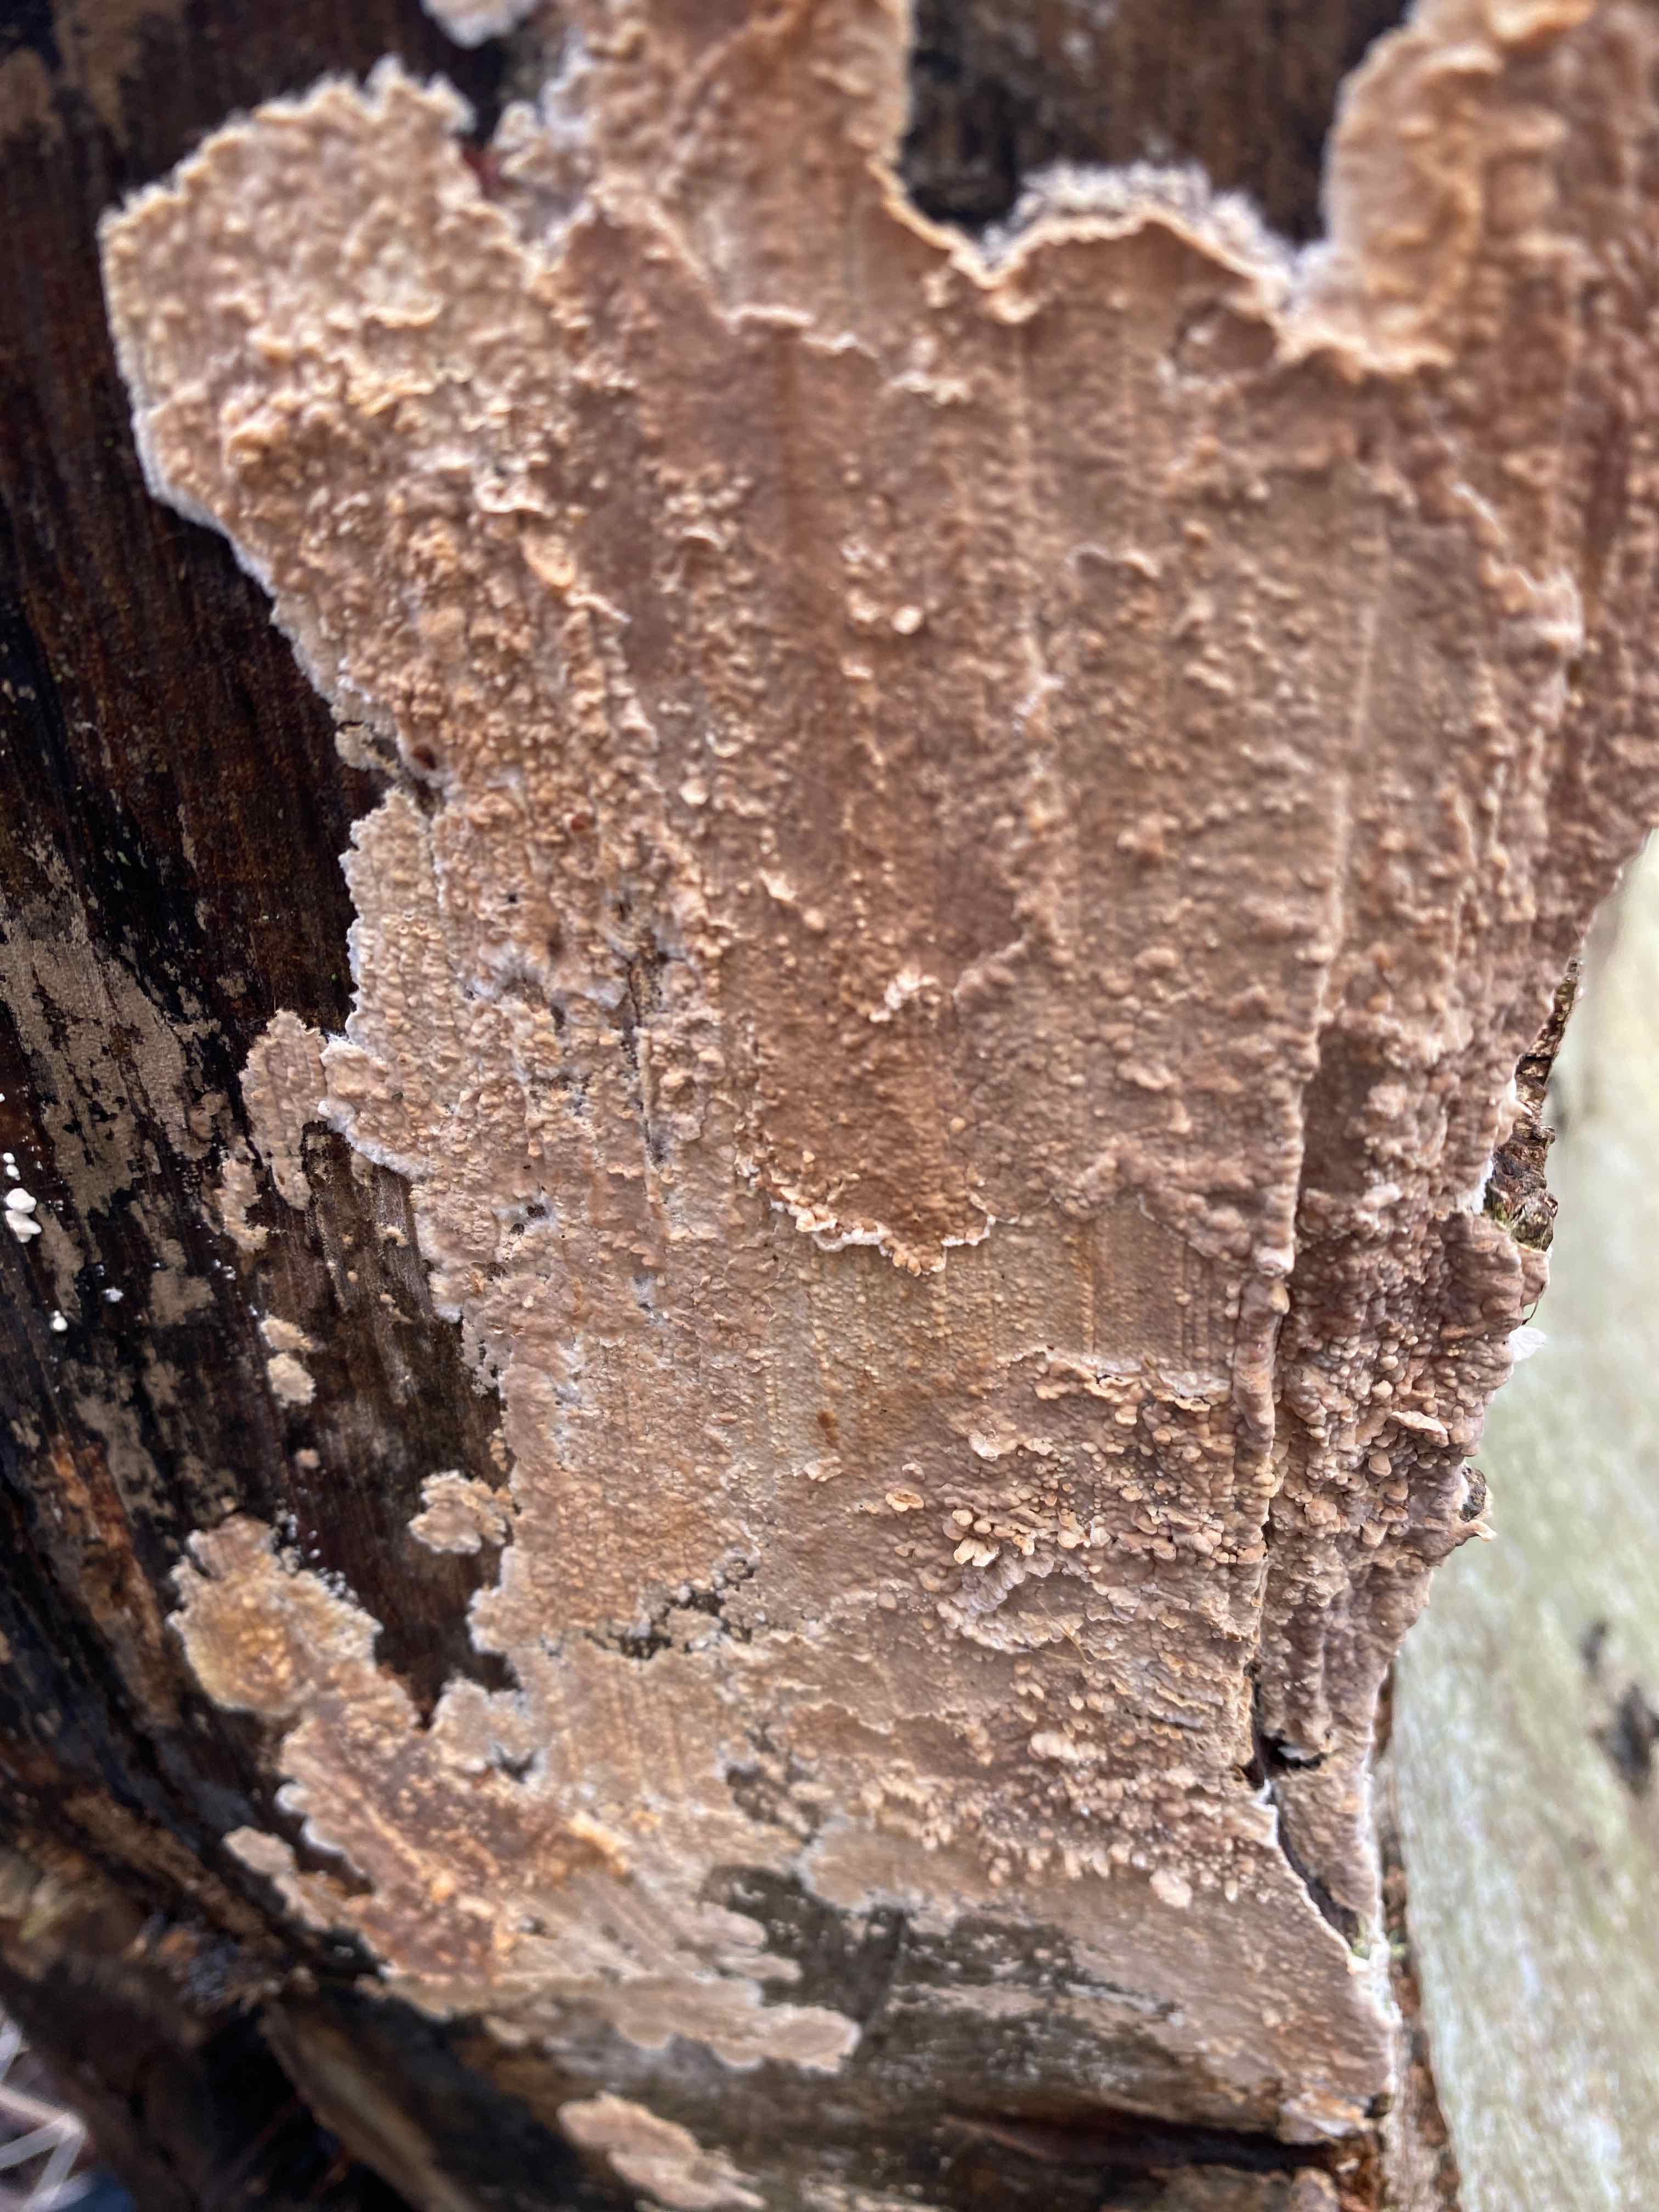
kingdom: Fungi
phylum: Basidiomycota
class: Agaricomycetes
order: Russulales
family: Peniophoraceae
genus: Peniophora
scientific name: Peniophora incarnata
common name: laksefarvet voksskind
